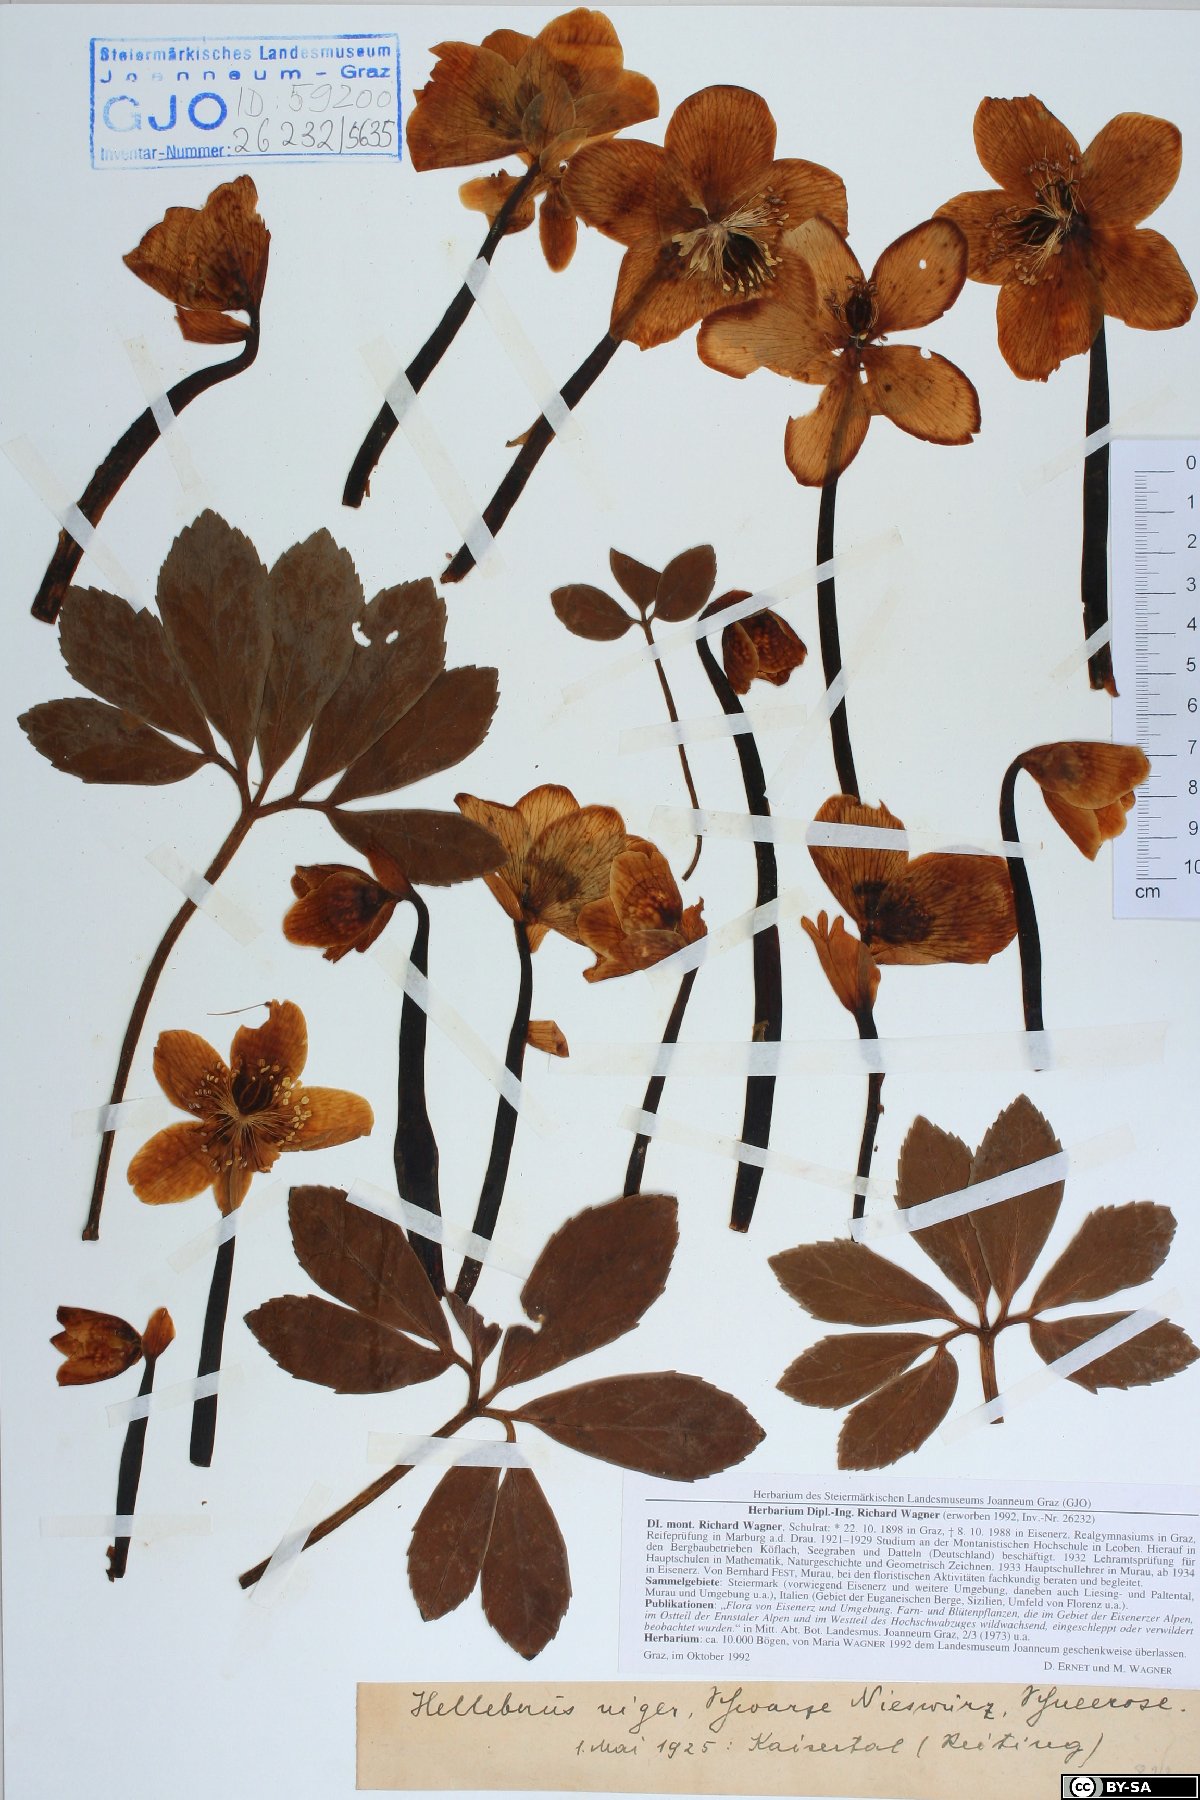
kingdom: Plantae
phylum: Tracheophyta
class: Magnoliopsida
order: Ranunculales
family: Ranunculaceae
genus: Helleborus
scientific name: Helleborus niger
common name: Black hellebore
